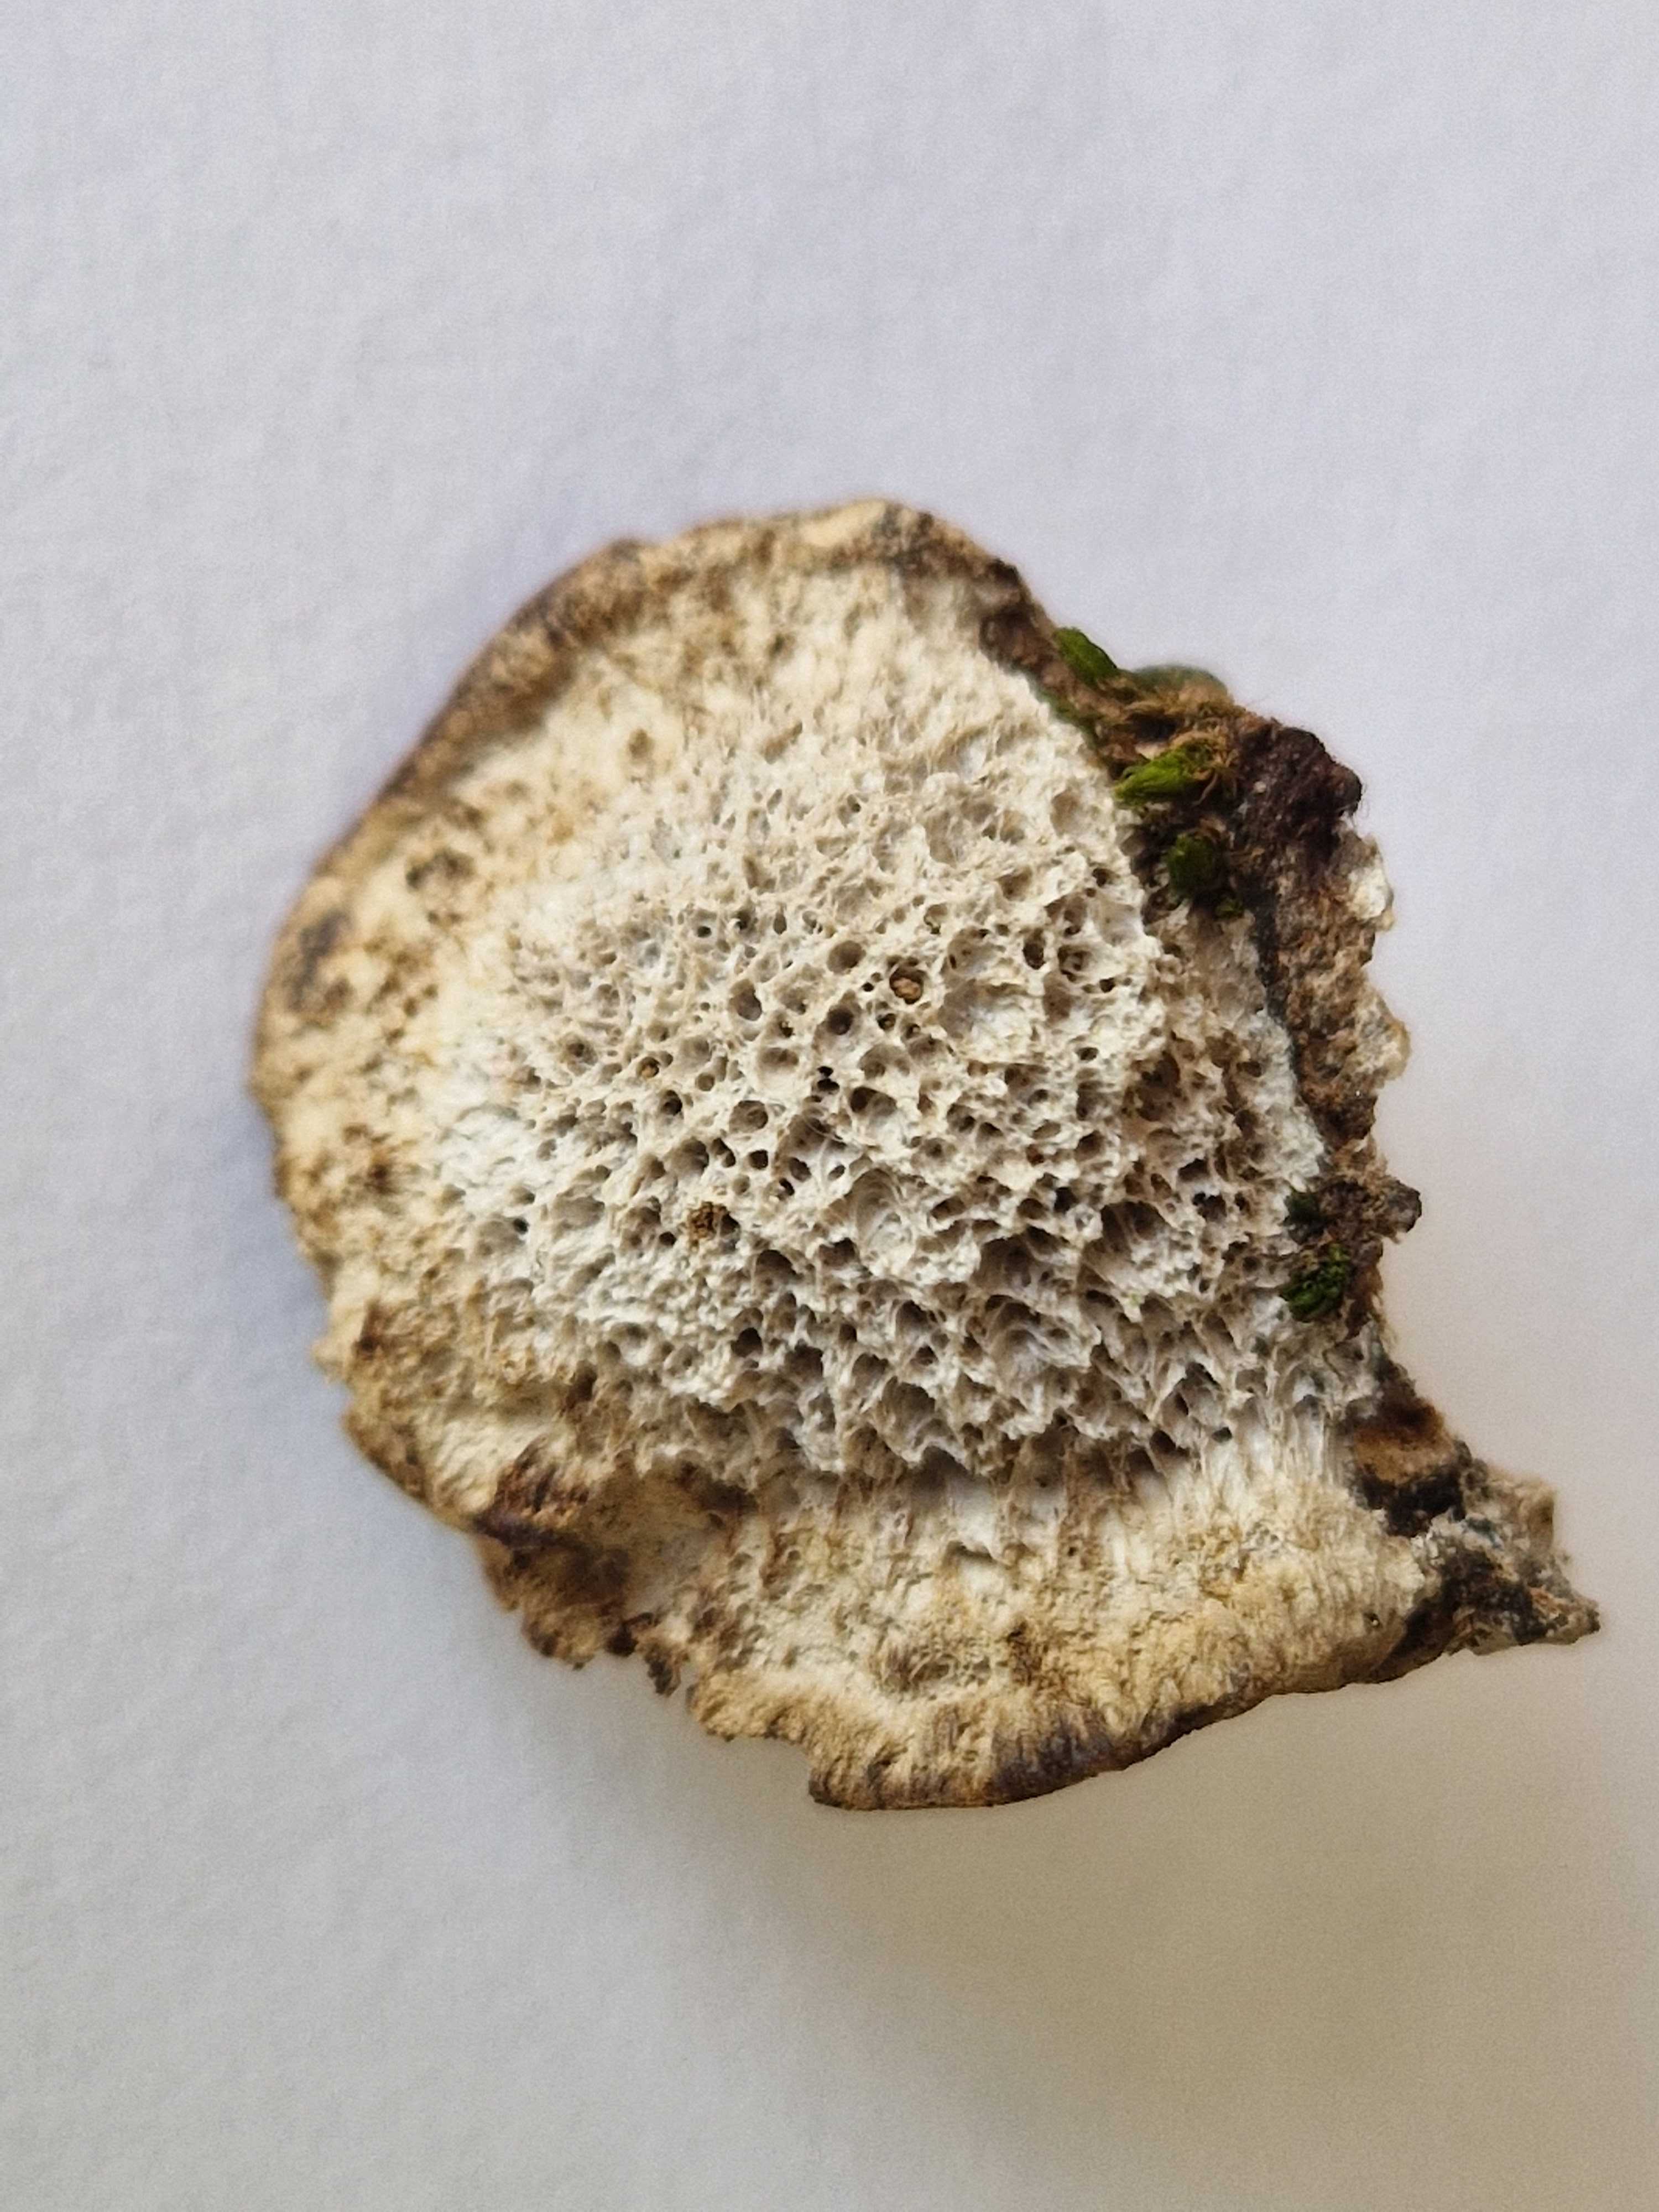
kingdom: Fungi
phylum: Basidiomycota
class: Agaricomycetes
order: Polyporales
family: Polyporaceae
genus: Trametes
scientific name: Trametes trogii
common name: småsporet filtporesvamp
